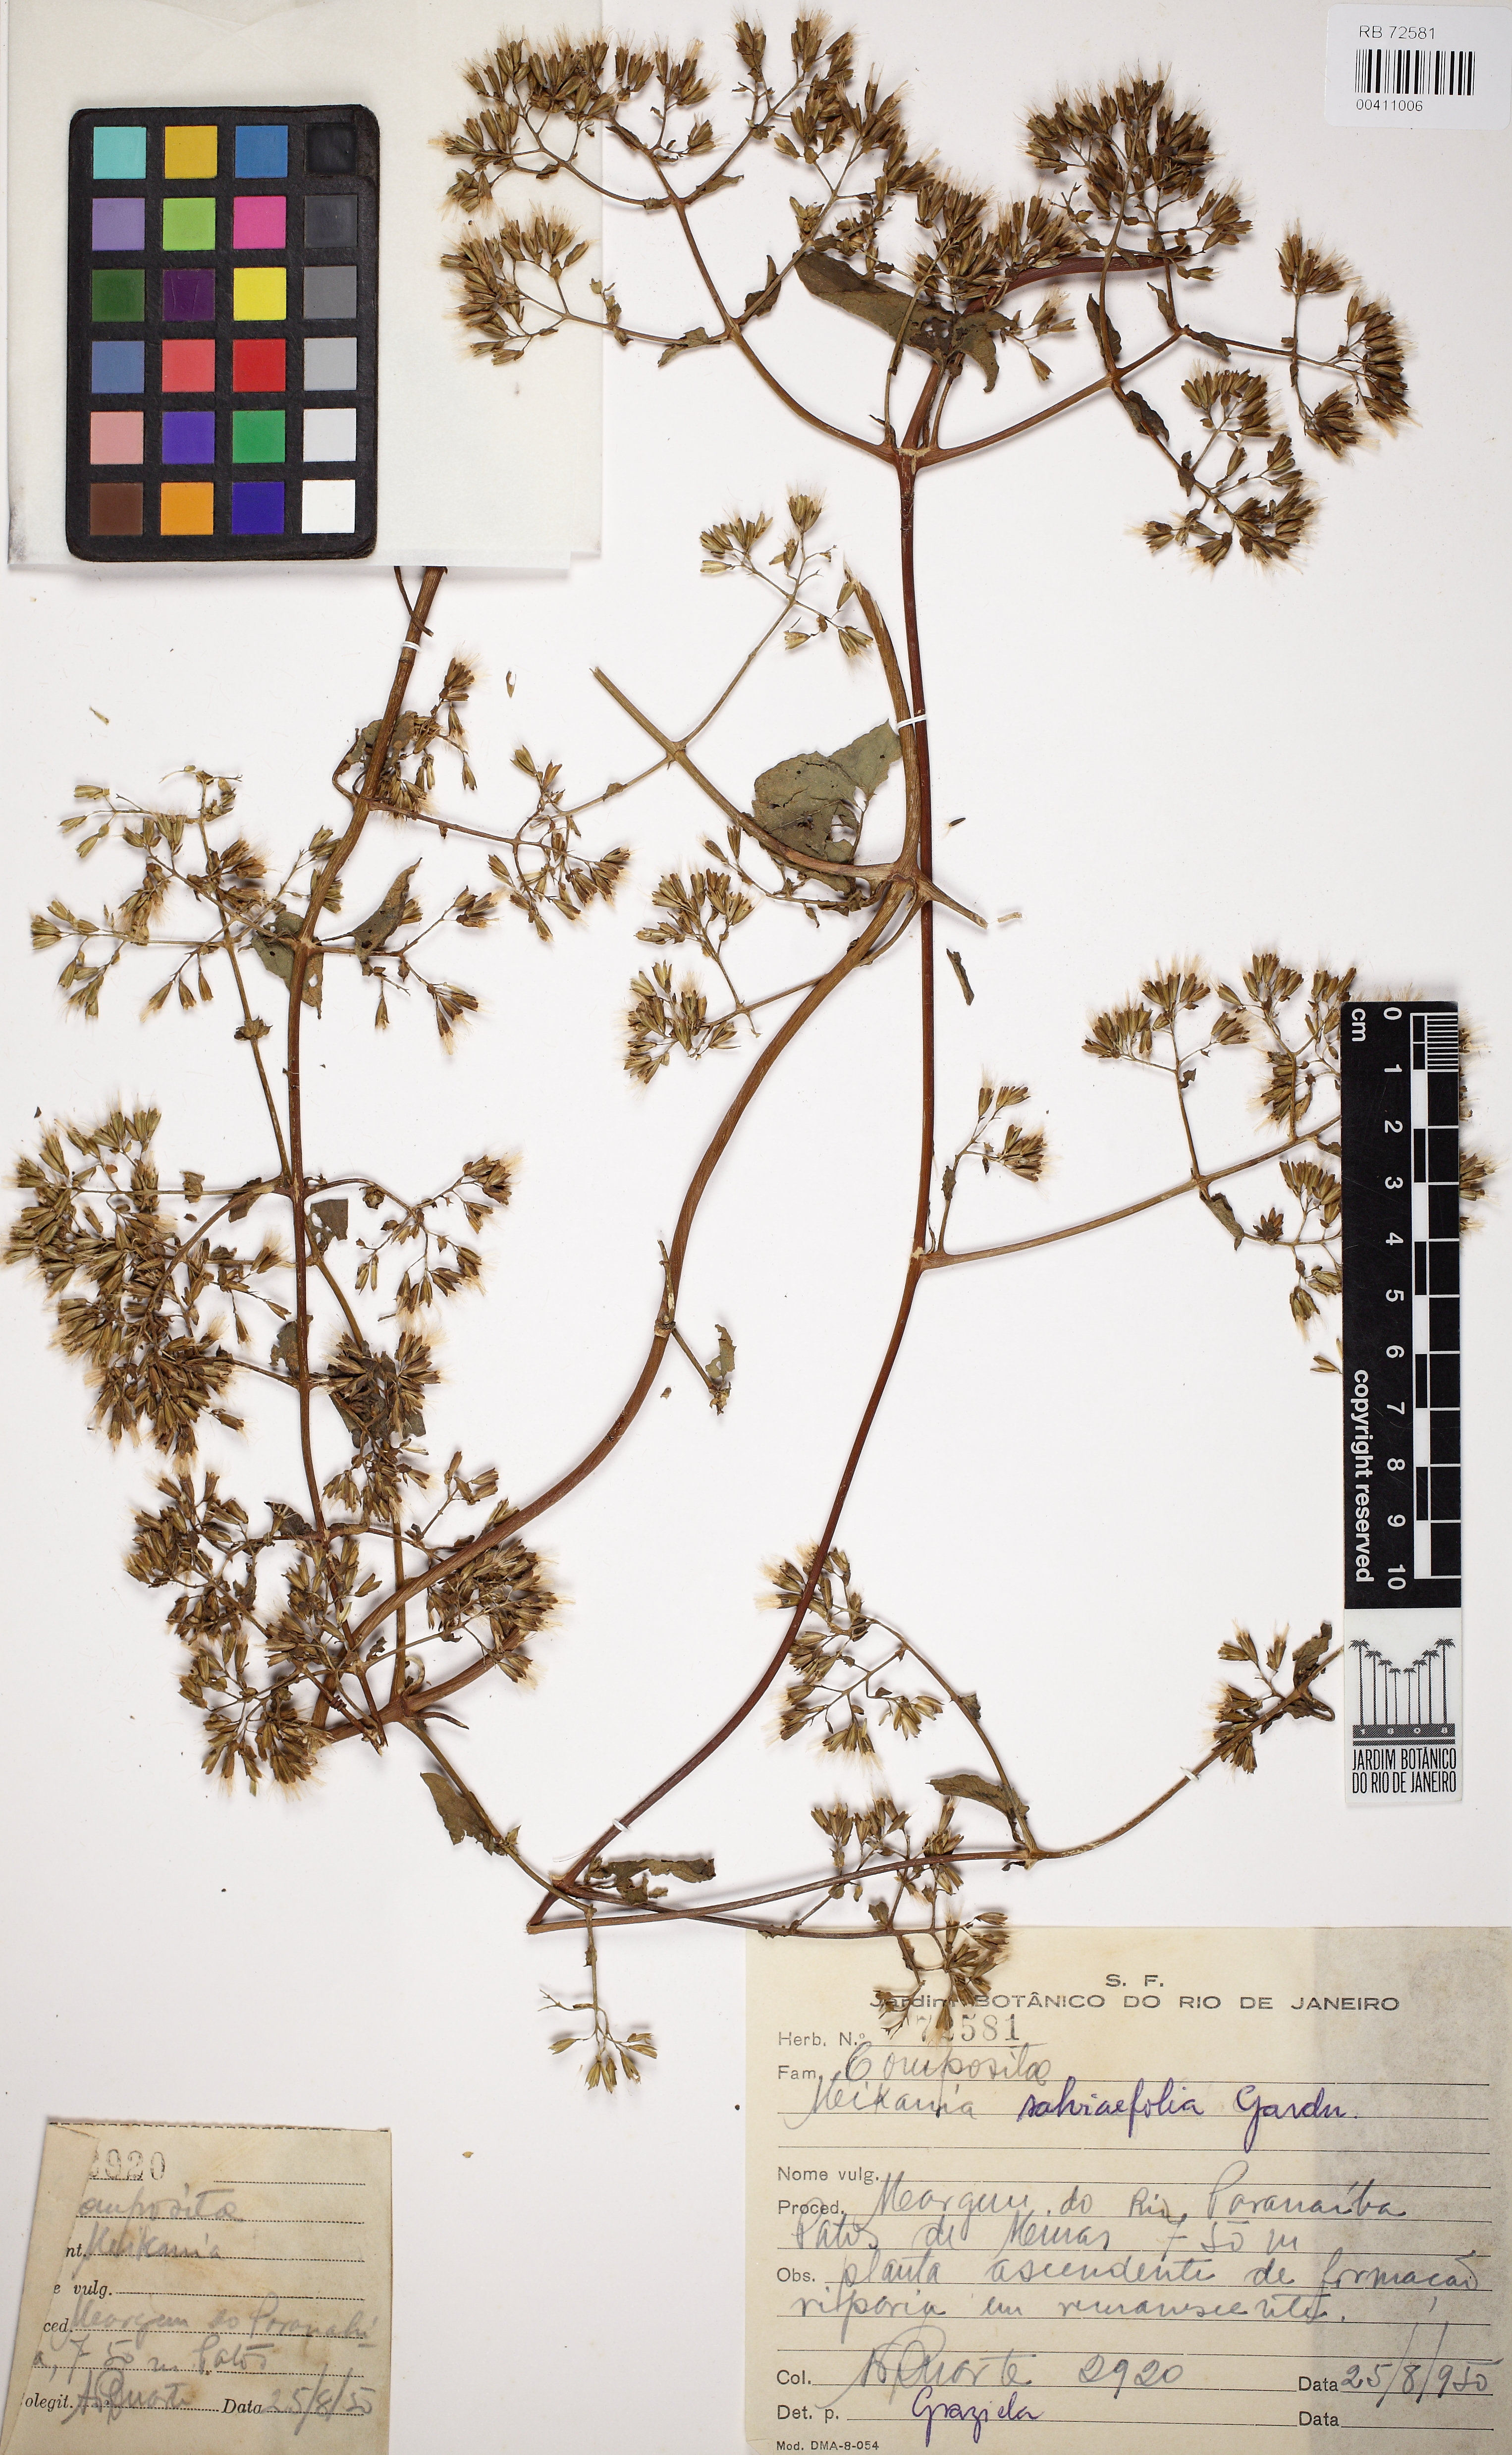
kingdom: Plantae
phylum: Tracheophyta
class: Magnoliopsida
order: Asterales
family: Asteraceae
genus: Mikania
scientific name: Mikania salviaefolia
